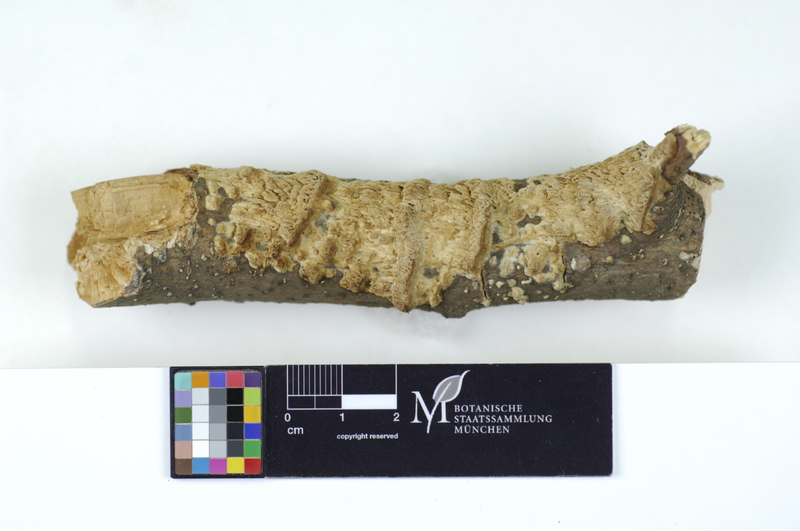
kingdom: Fungi
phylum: Basidiomycota
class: Agaricomycetes
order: Polyporales
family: Fomitopsidaceae
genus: Antrodia
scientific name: Antrodia albida
